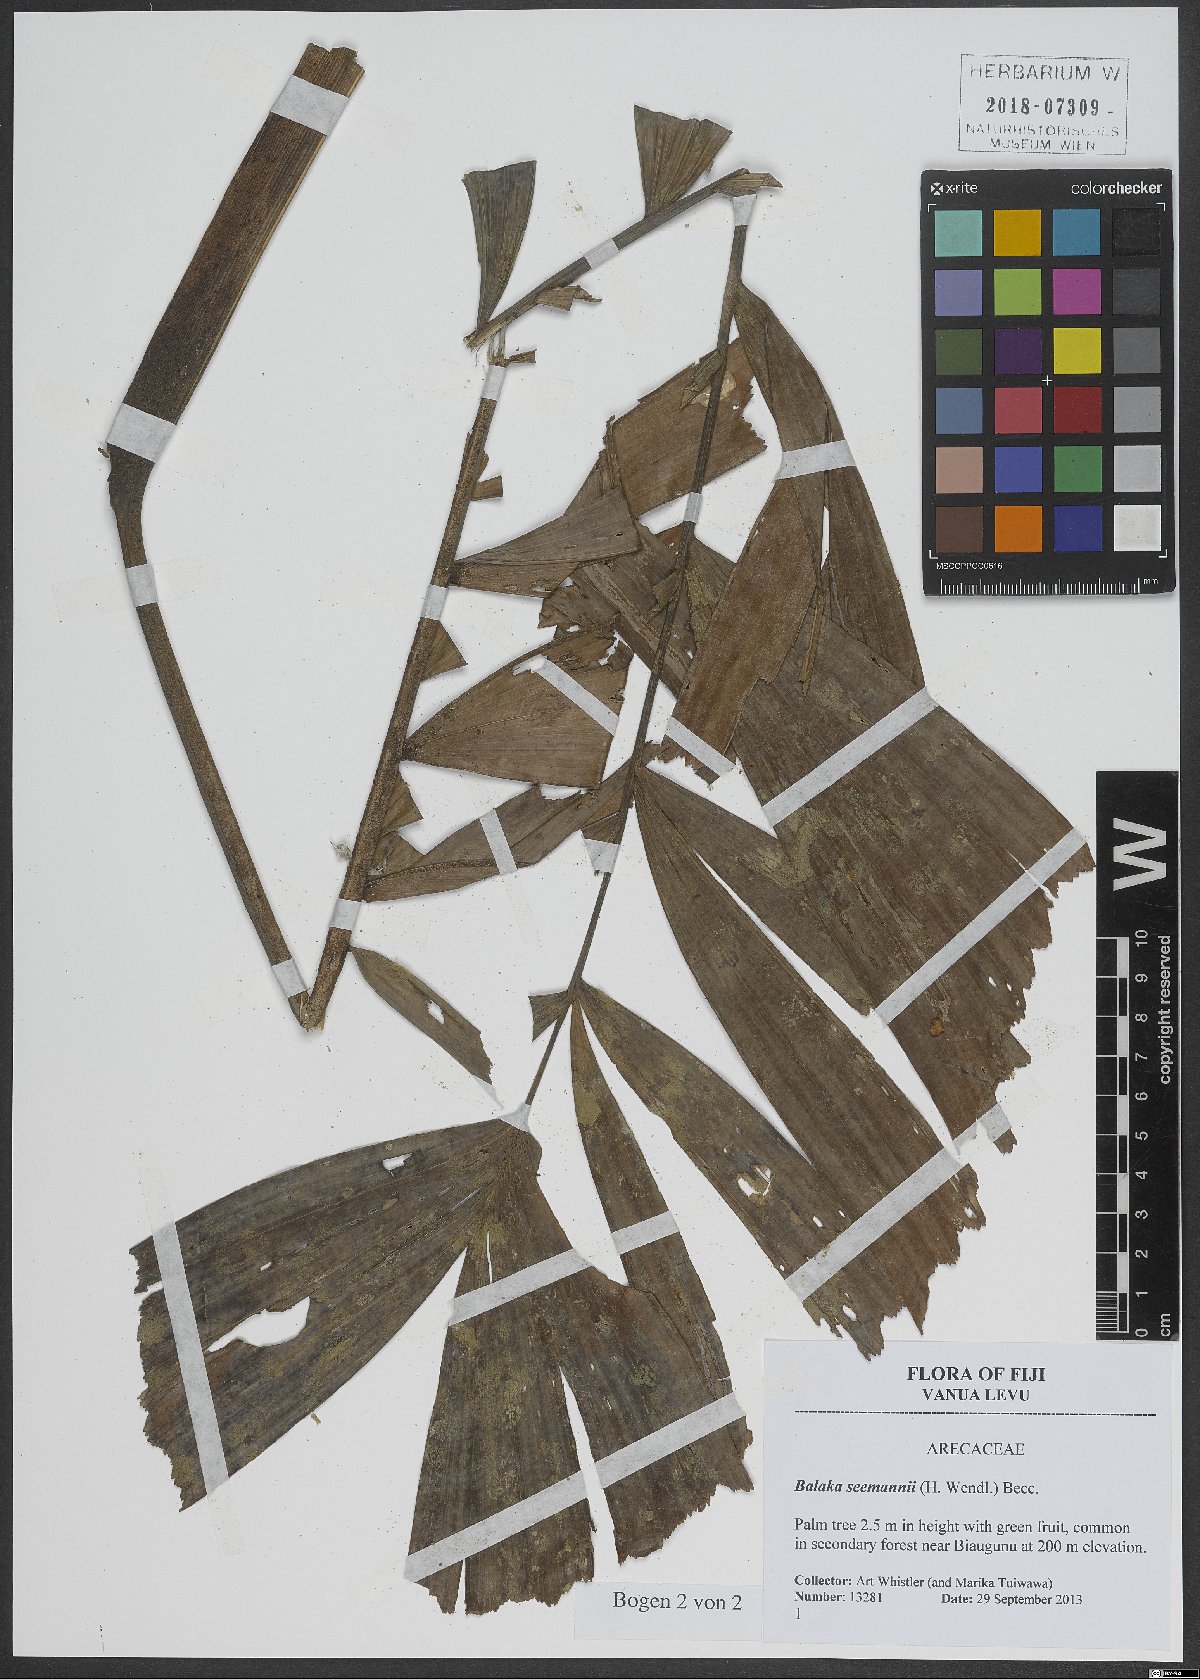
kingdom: Plantae
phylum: Tracheophyta
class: Liliopsida
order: Arecales
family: Arecaceae
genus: Balaka
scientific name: Balaka seemannii
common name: Balaka palm
